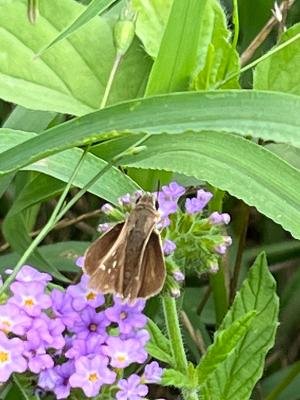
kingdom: Animalia
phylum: Arthropoda
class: Insecta
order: Lepidoptera
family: Hesperiidae
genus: Lerodea
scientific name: Lerodea eufala
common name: Eufala Skipper
